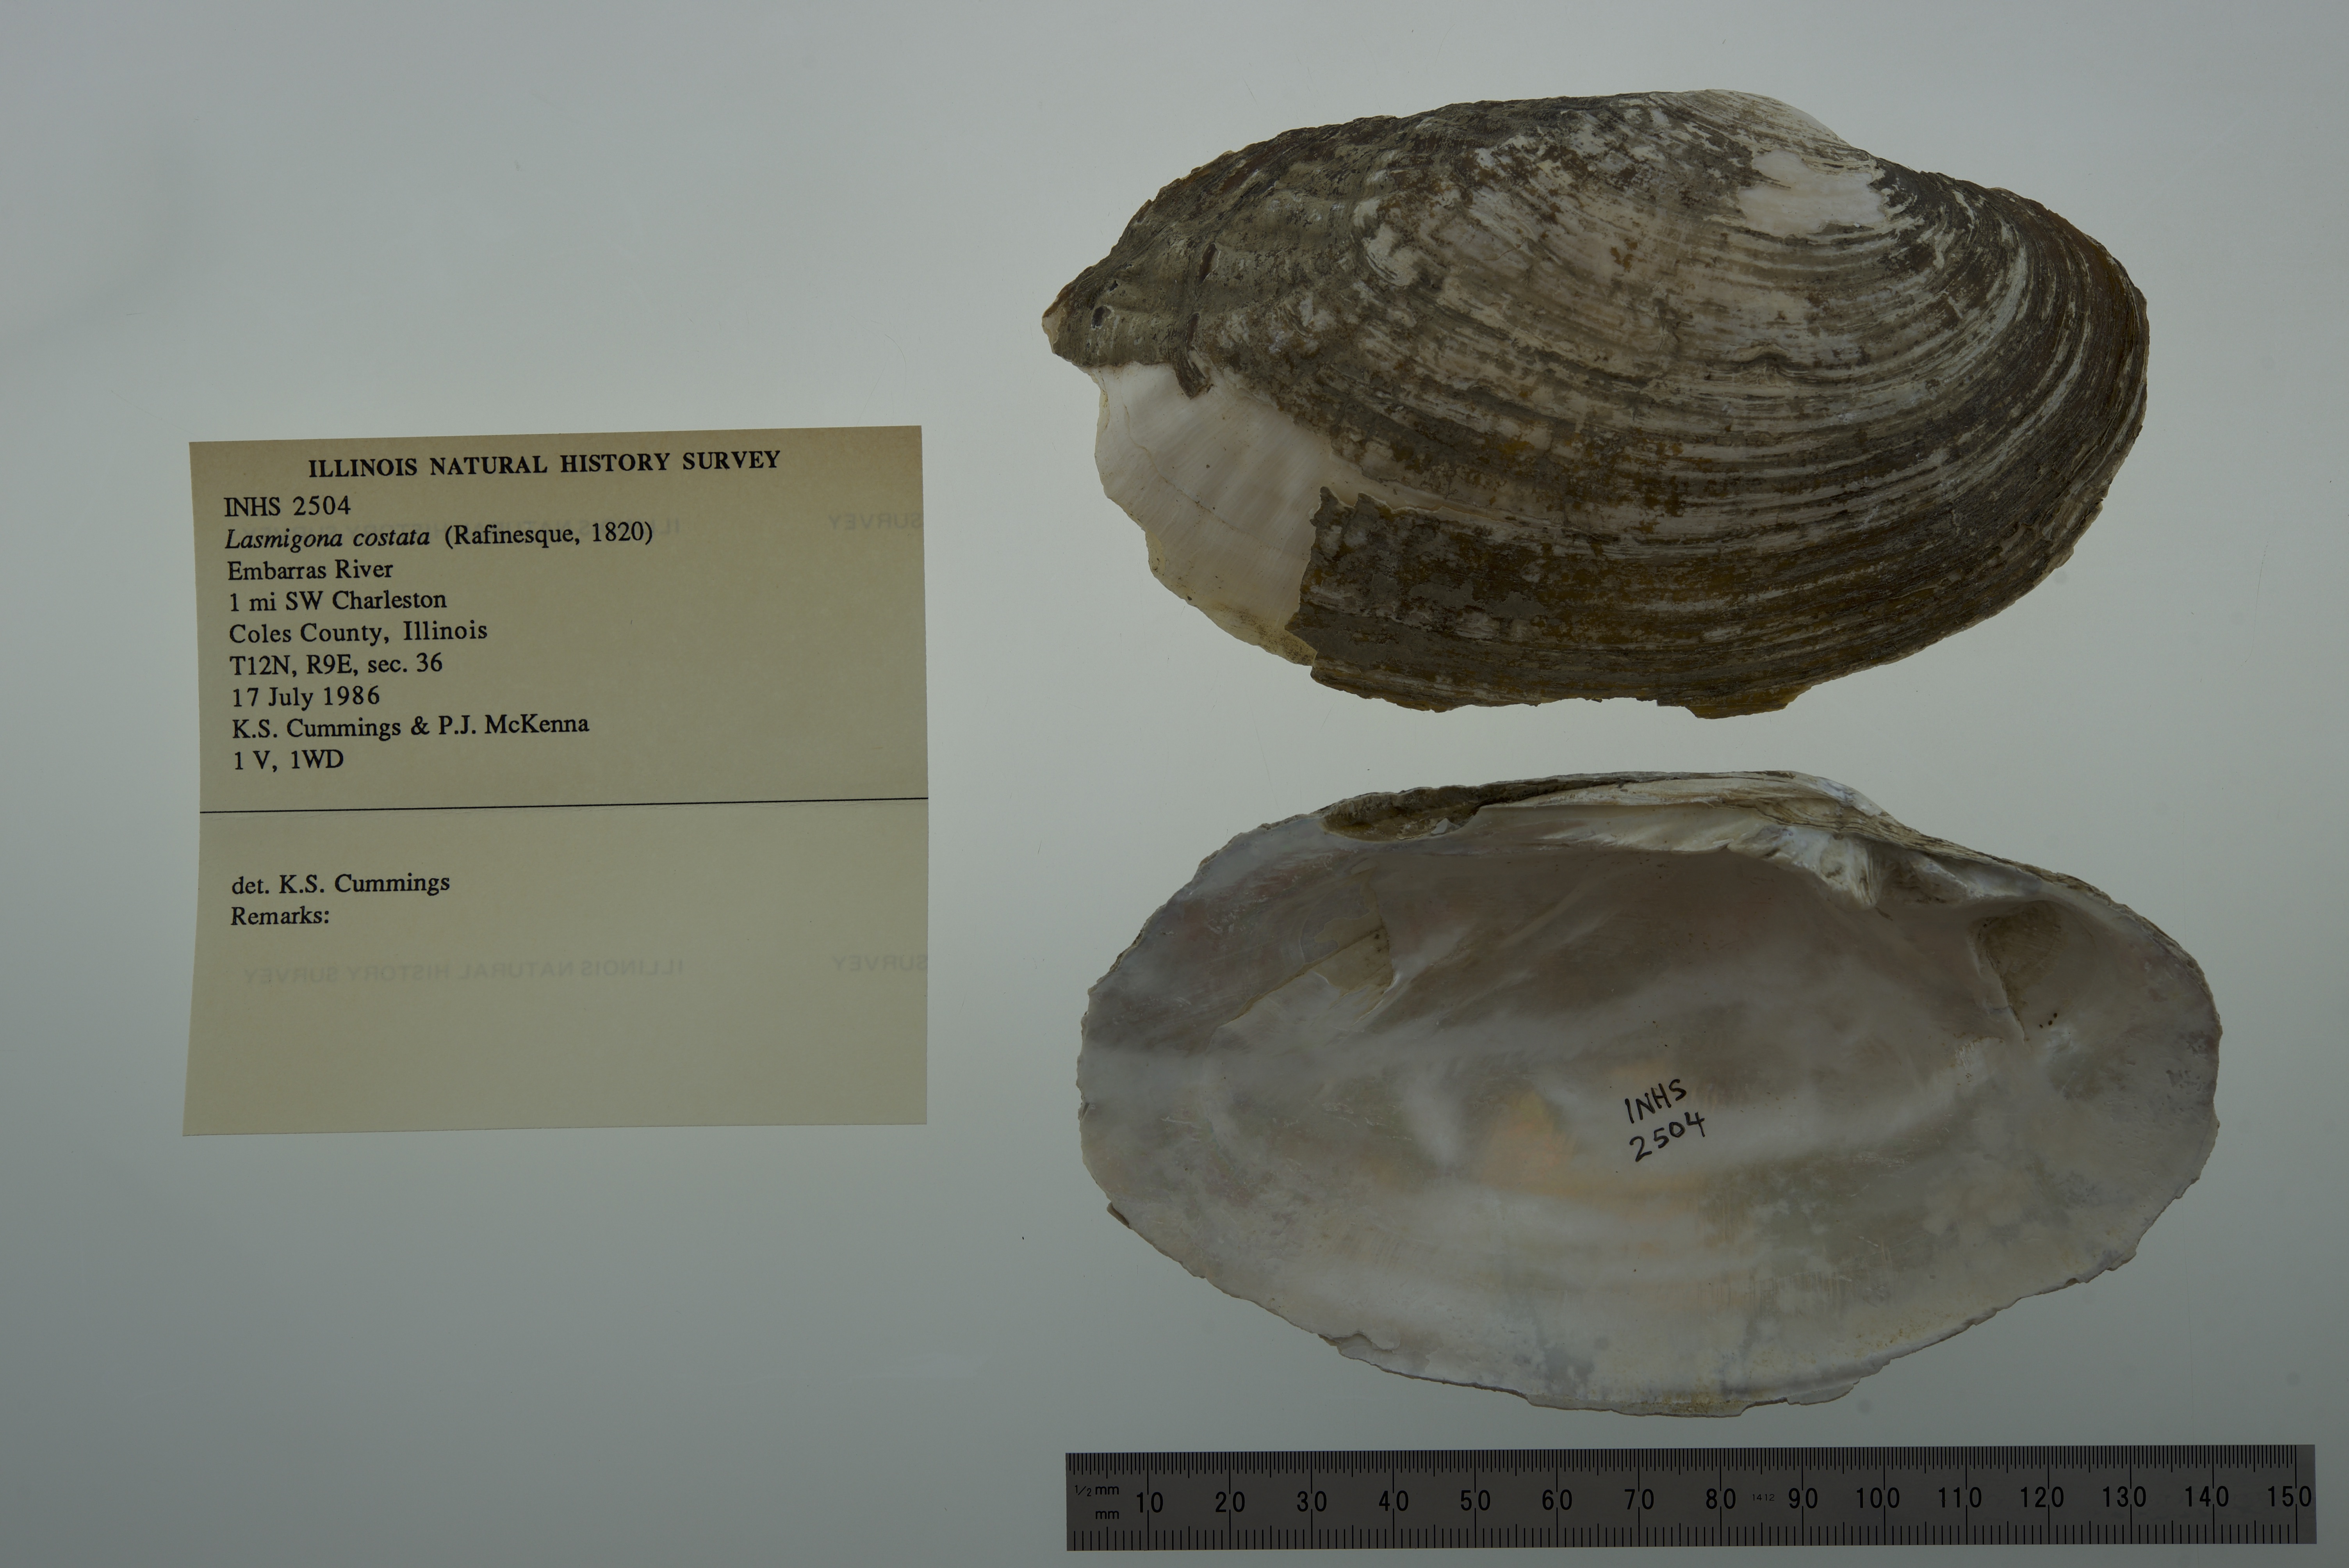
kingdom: Animalia
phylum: Mollusca
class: Bivalvia
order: Unionida
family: Unionidae
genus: Lasmigona
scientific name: Lasmigona costata
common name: Flutedshell
